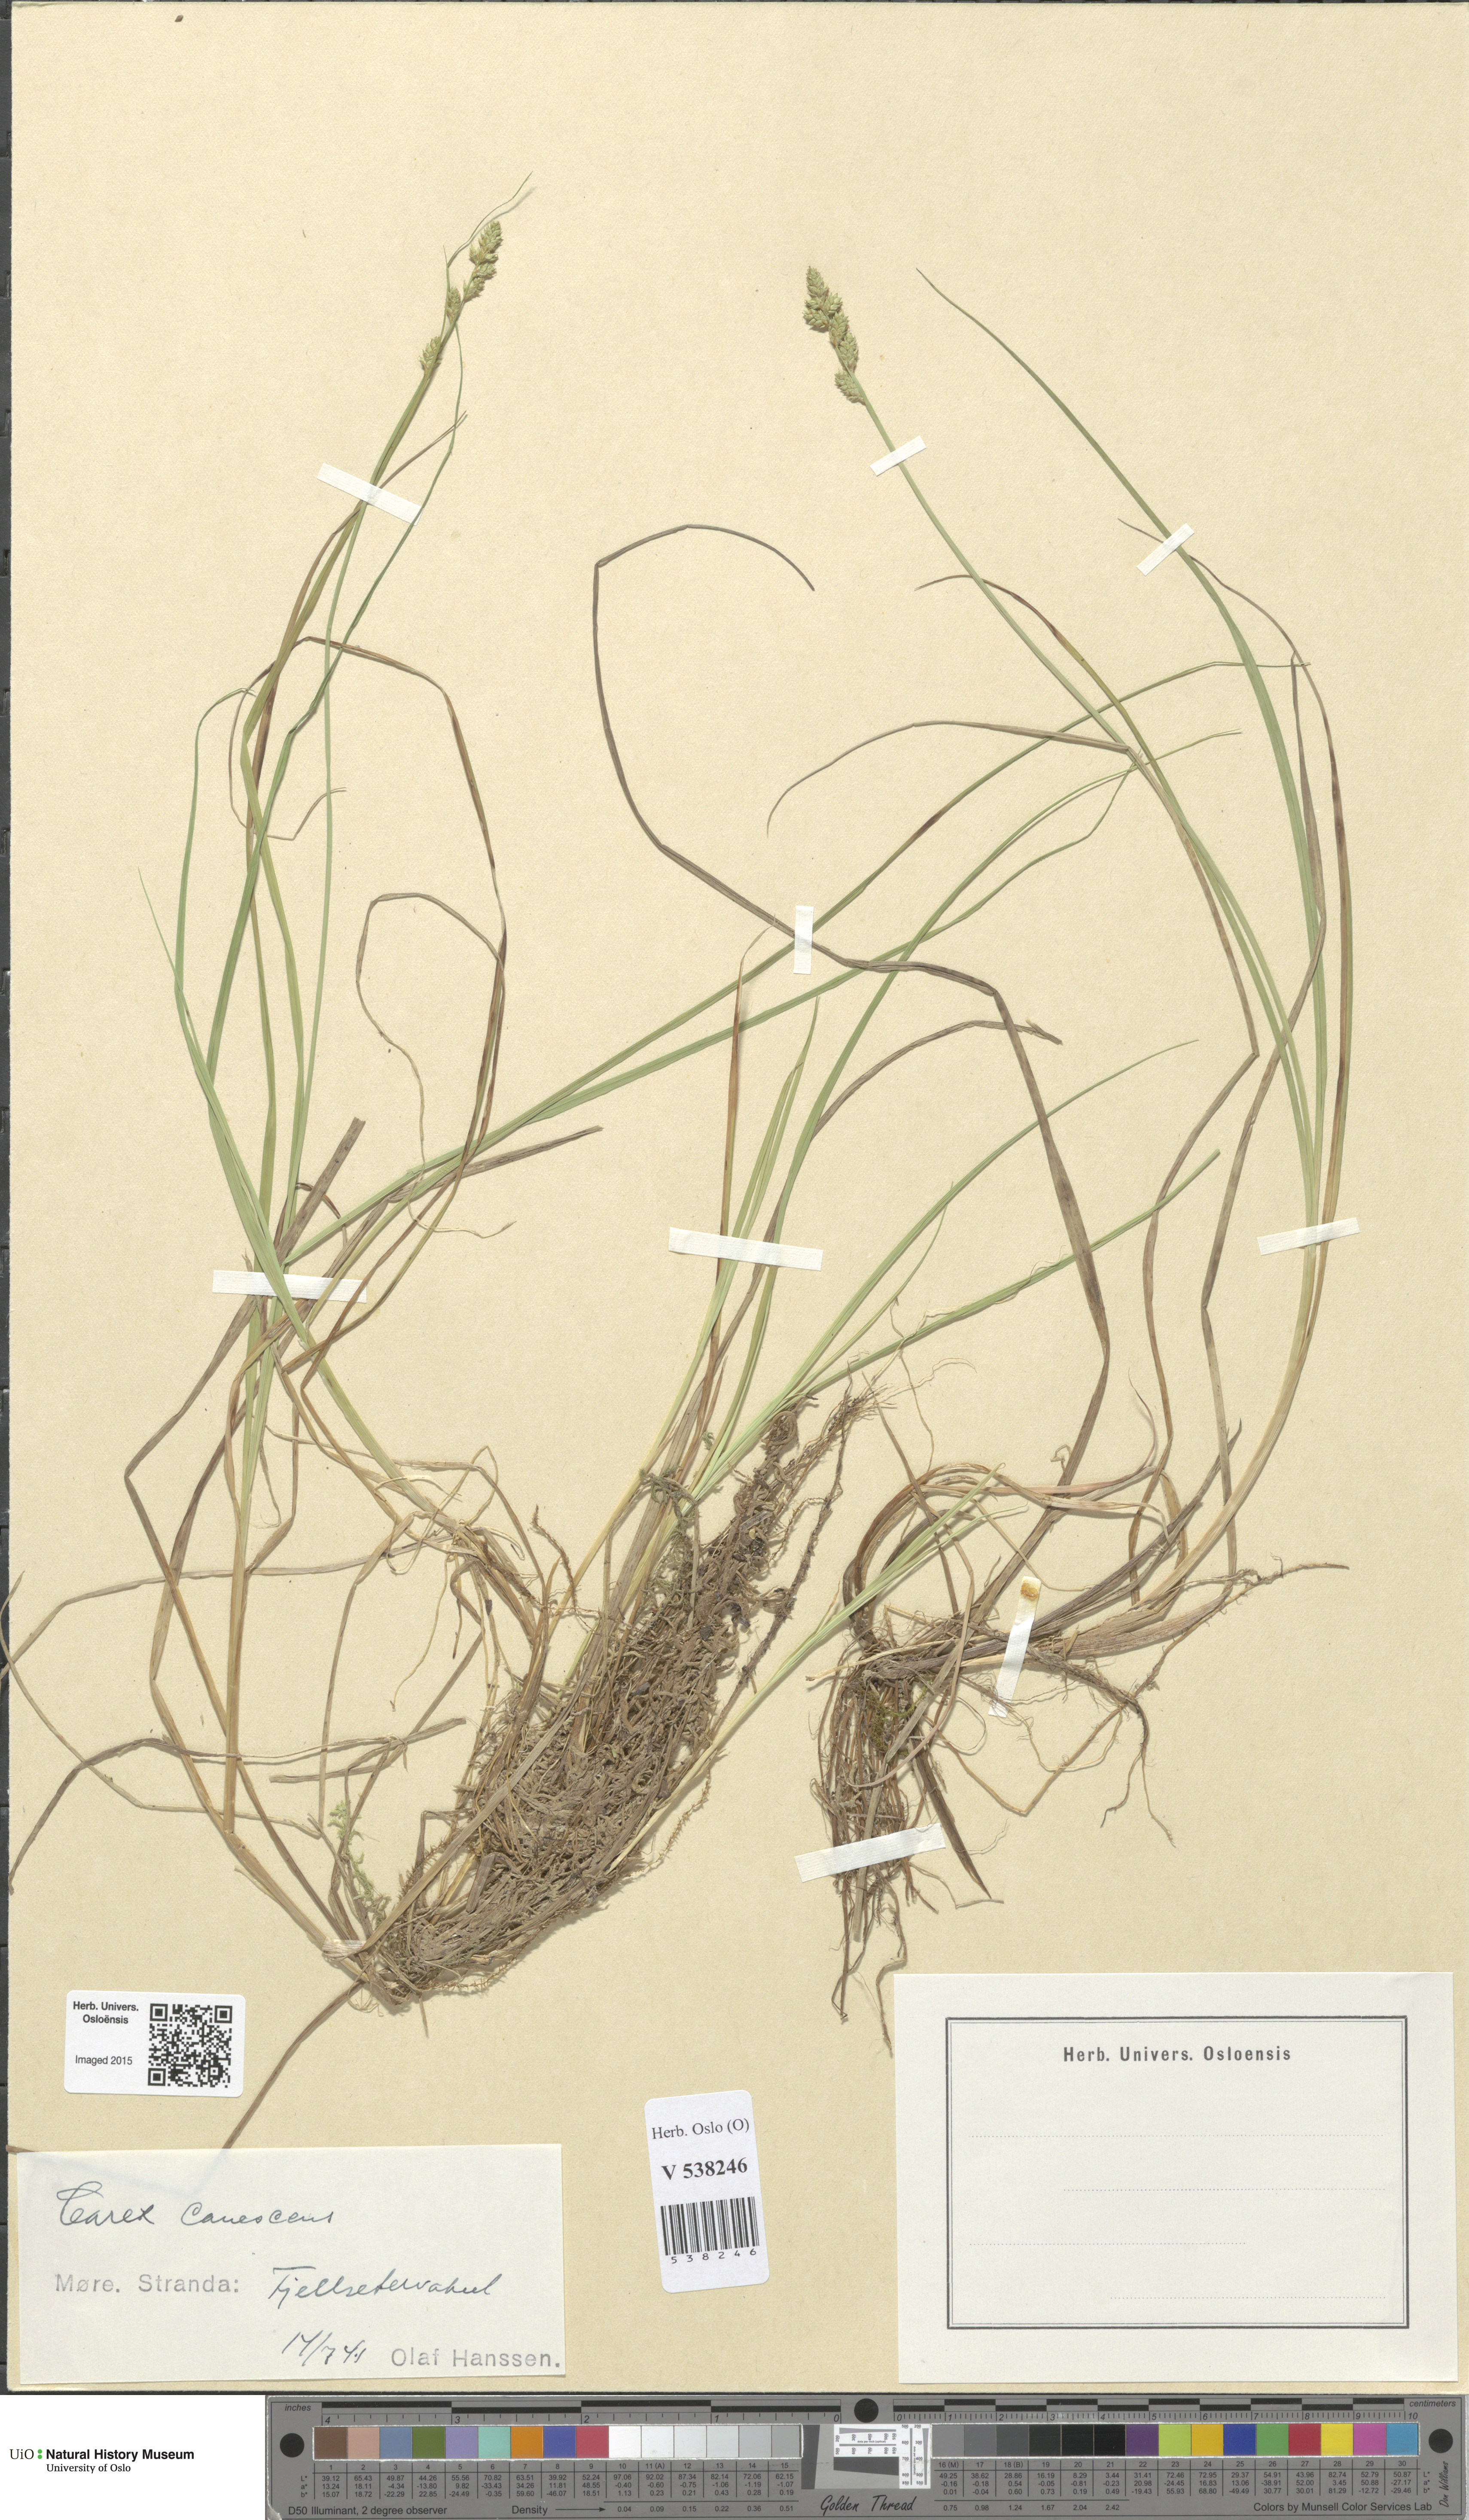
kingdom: Plantae
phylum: Tracheophyta
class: Liliopsida
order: Poales
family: Cyperaceae
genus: Carex
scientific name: Carex canescens
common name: White sedge
